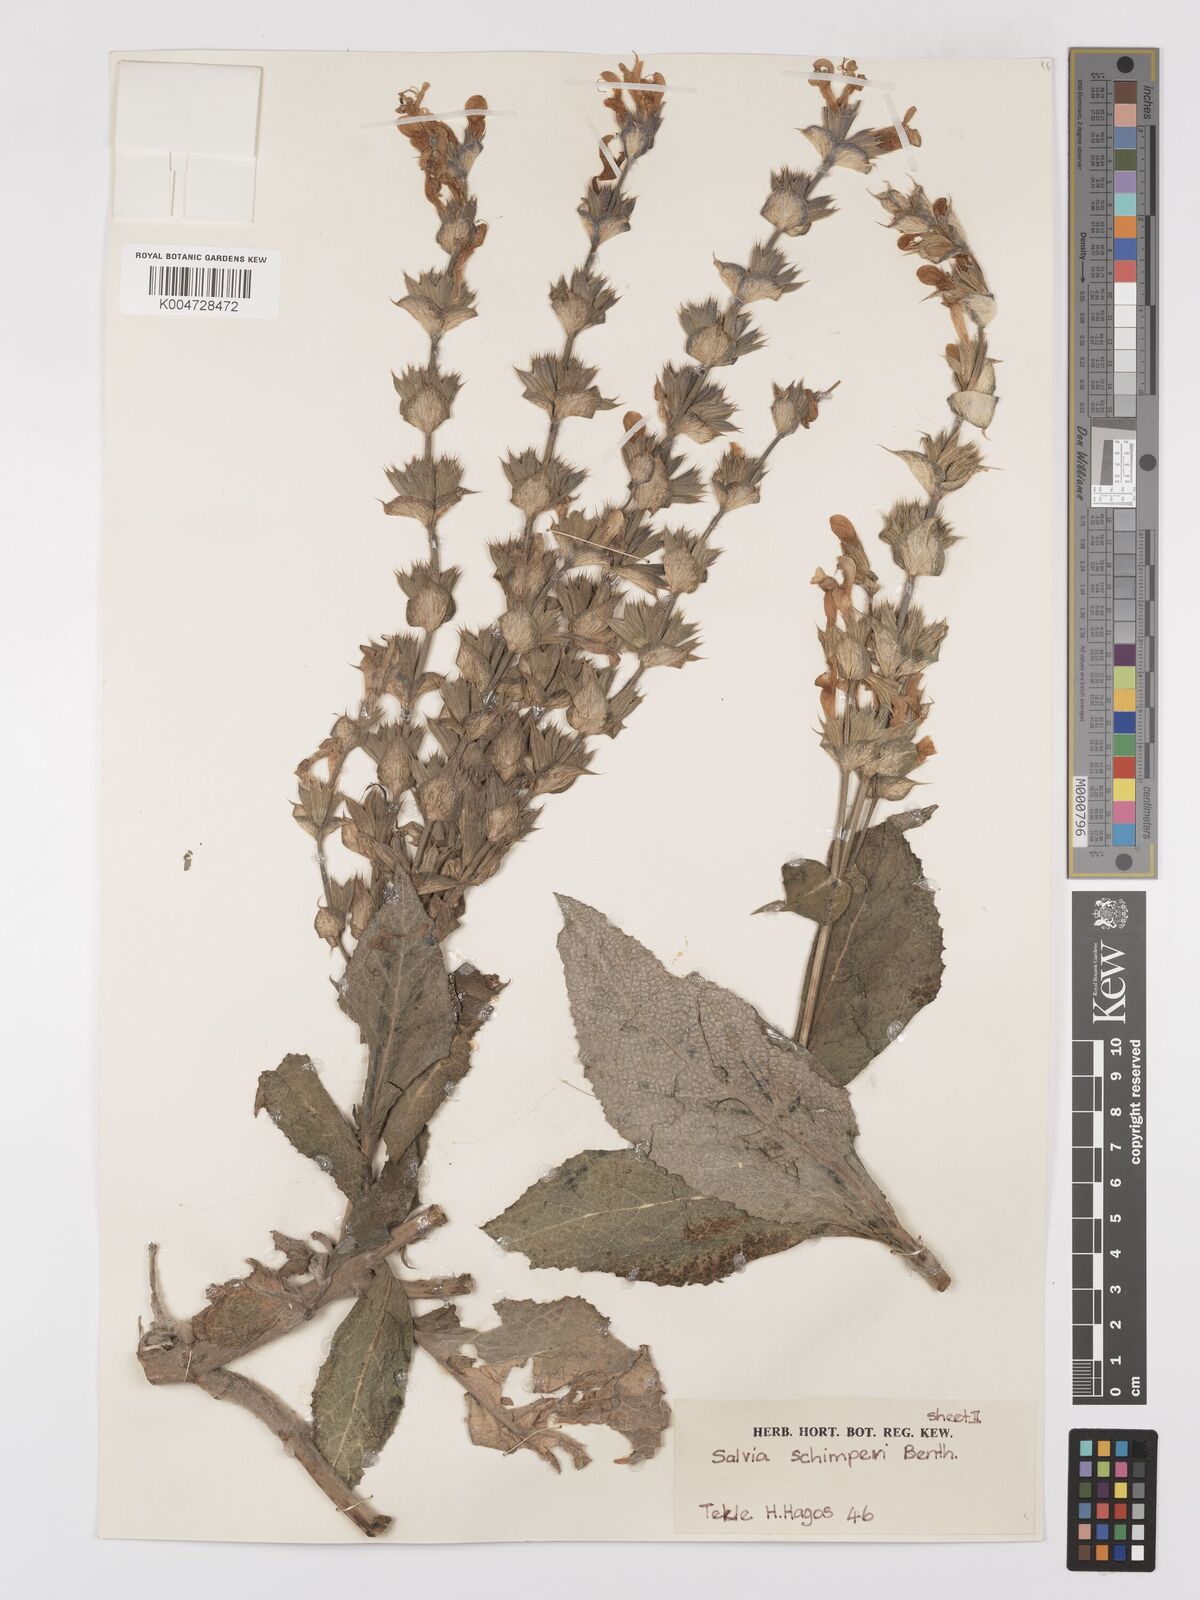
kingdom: Plantae
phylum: Tracheophyta
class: Magnoliopsida
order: Lamiales
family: Lamiaceae
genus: Salvia
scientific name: Salvia schimperi
